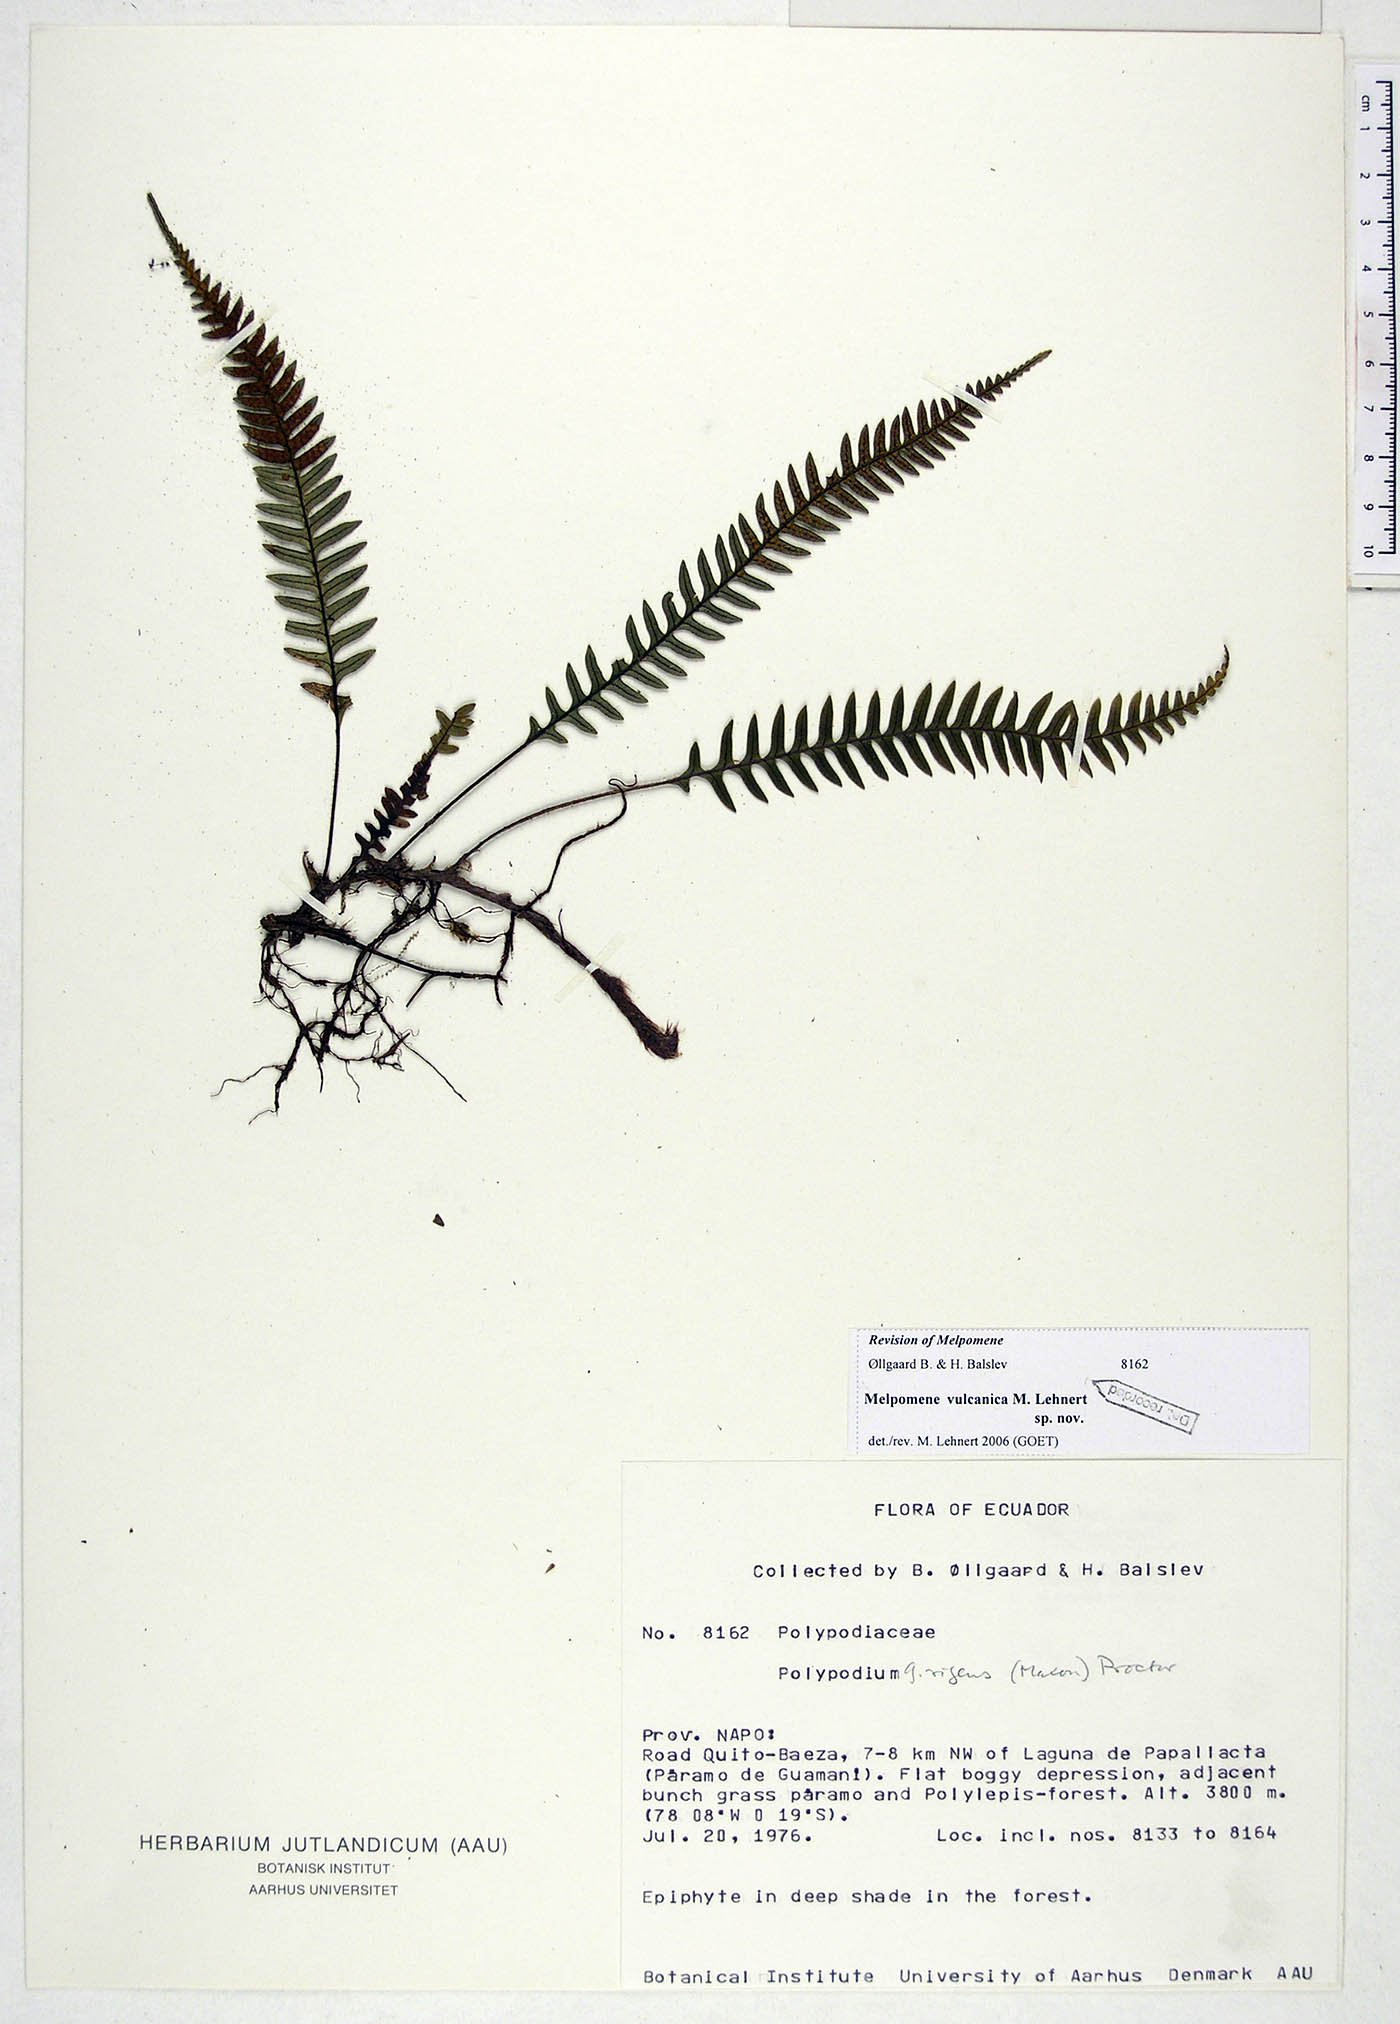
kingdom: Plantae
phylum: Tracheophyta
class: Polypodiopsida
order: Polypodiales
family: Polypodiaceae
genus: Melpomene
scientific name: Melpomene vulcanica
